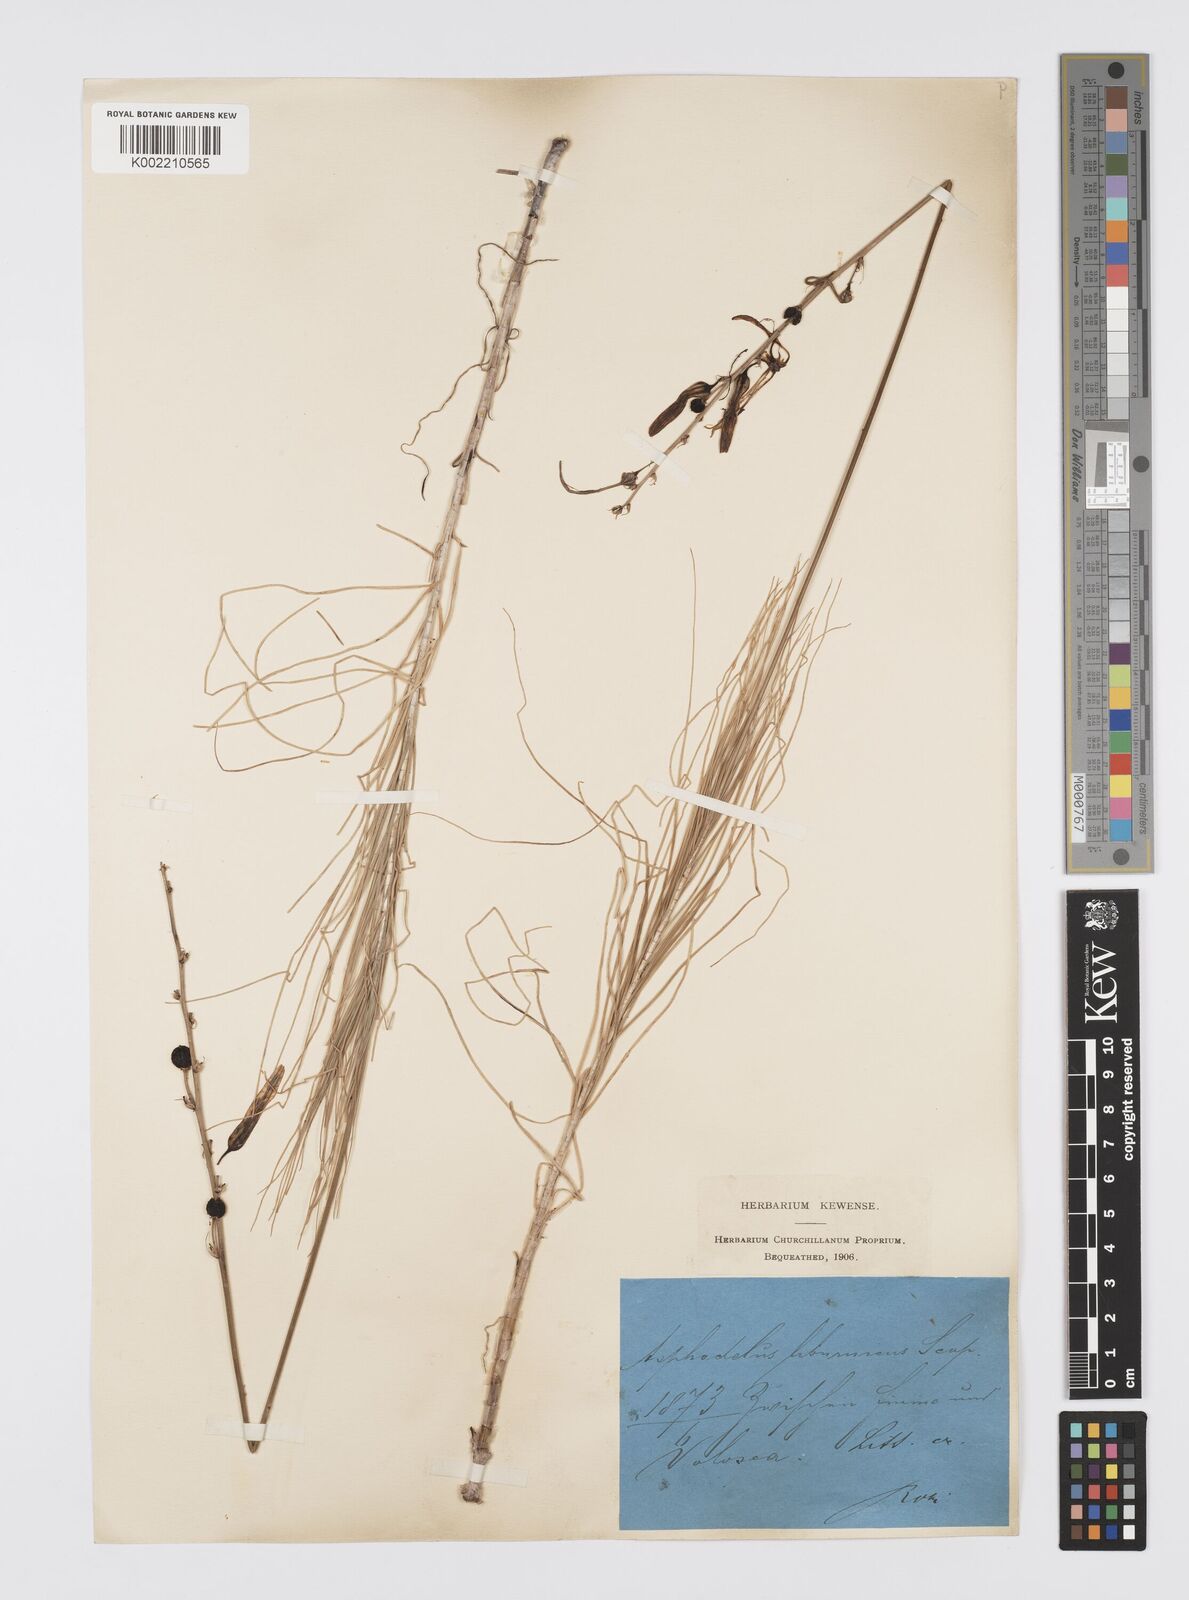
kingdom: Plantae
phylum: Tracheophyta
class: Liliopsida
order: Asparagales
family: Asphodelaceae
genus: Asphodeline
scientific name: Asphodeline liburnica
